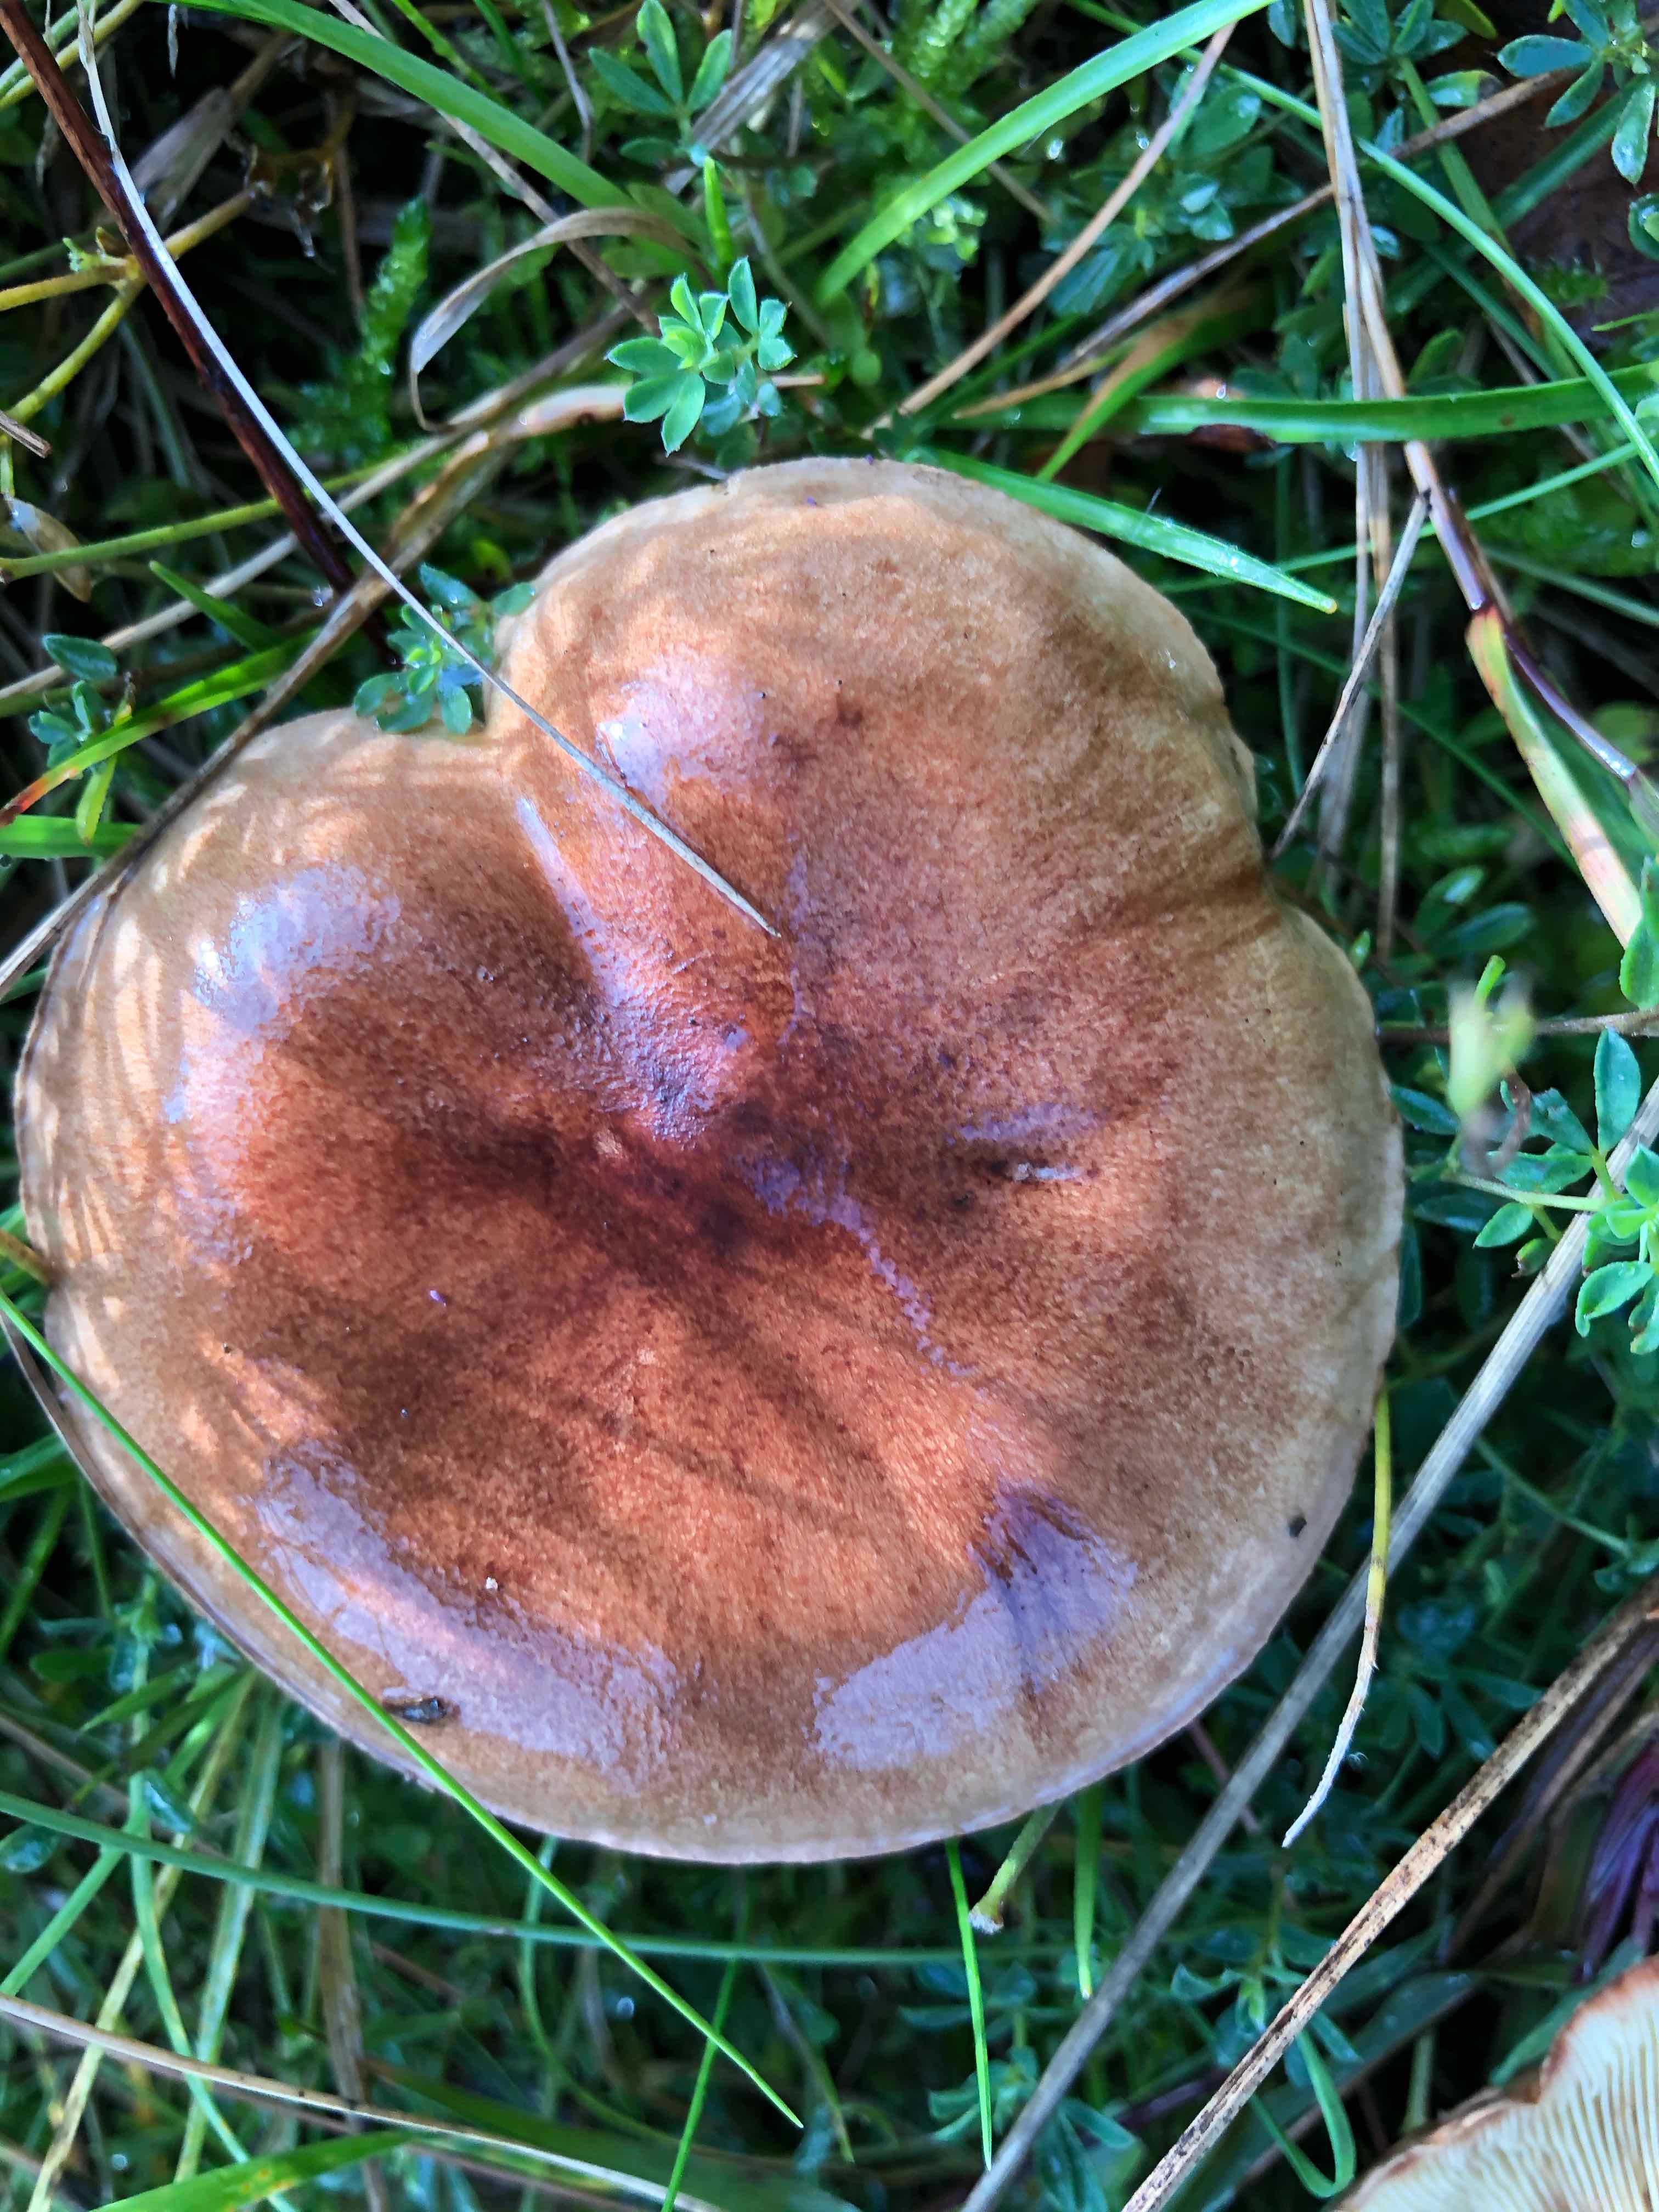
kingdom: Fungi
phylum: Basidiomycota
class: Agaricomycetes
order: Agaricales
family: Tricholomataceae
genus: Tricholoma
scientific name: Tricholoma fulvum
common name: birke-ridderhat
